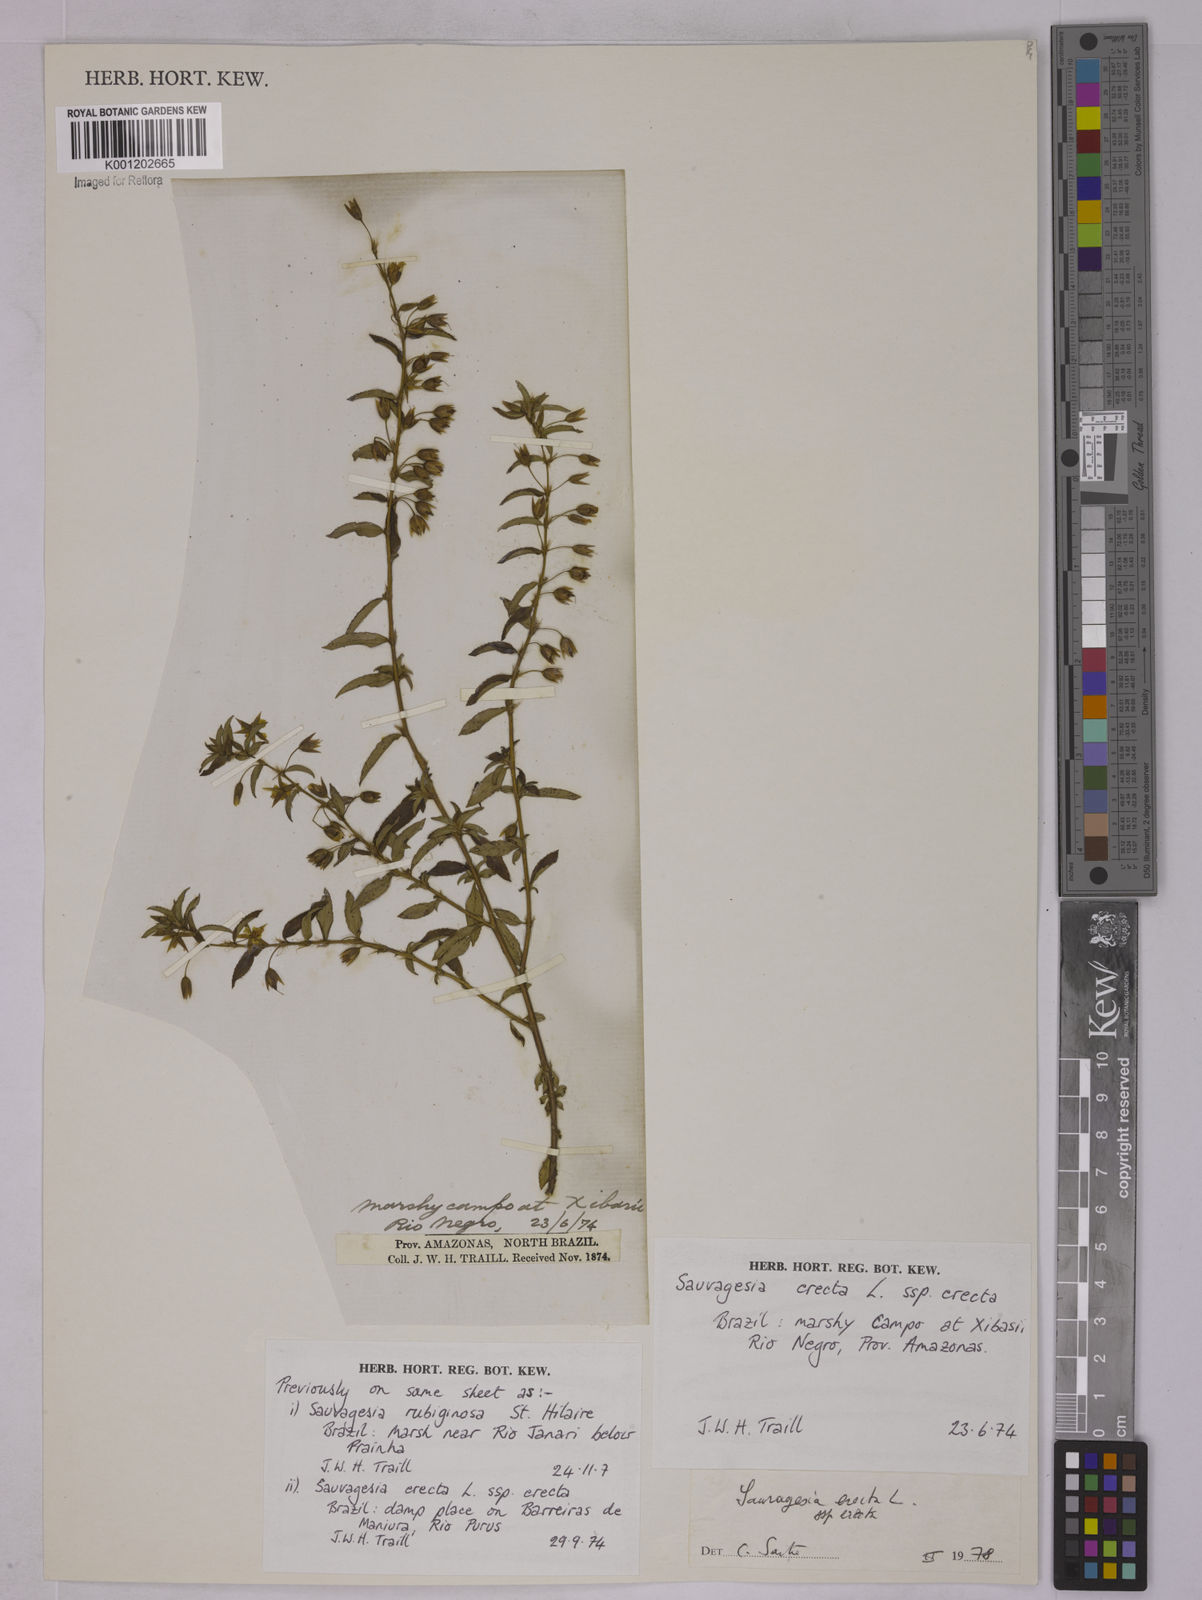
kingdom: Plantae
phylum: Tracheophyta
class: Magnoliopsida
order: Malpighiales
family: Ochnaceae
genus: Sauvagesia
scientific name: Sauvagesia erecta
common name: Creole tea
